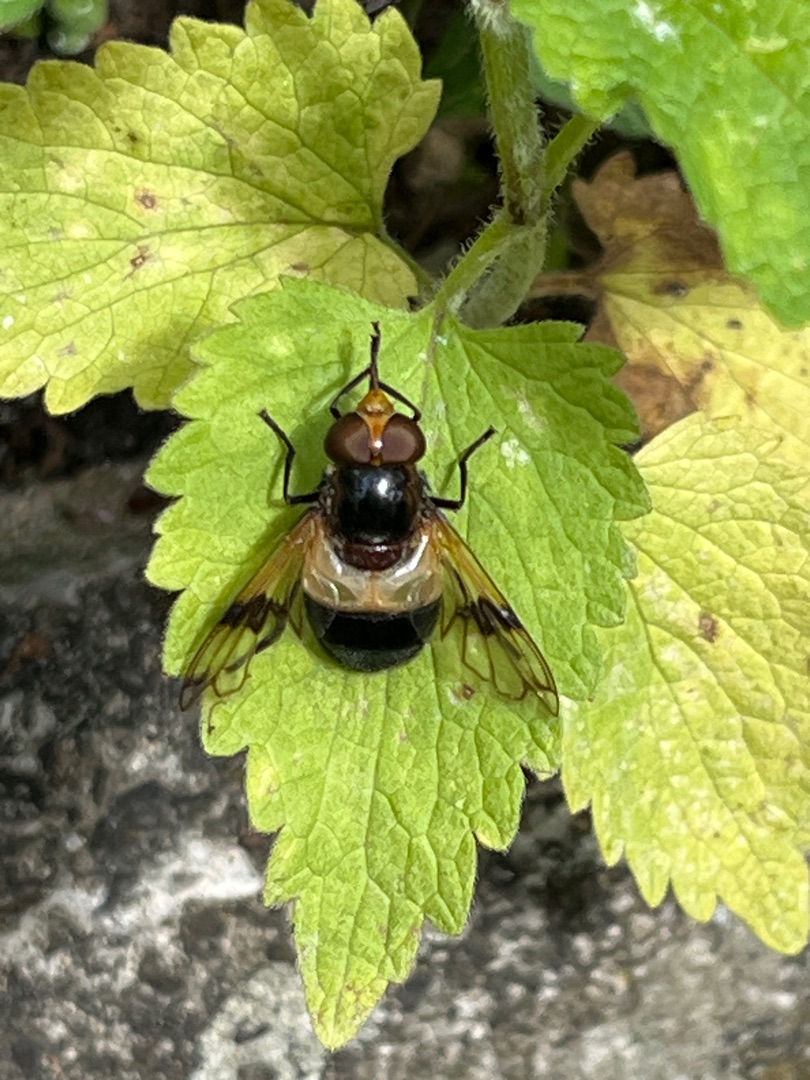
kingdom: Animalia
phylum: Arthropoda
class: Insecta
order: Diptera
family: Syrphidae
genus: Volucella
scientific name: Volucella pellucens
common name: Hvidbåndet humlesvirreflue
